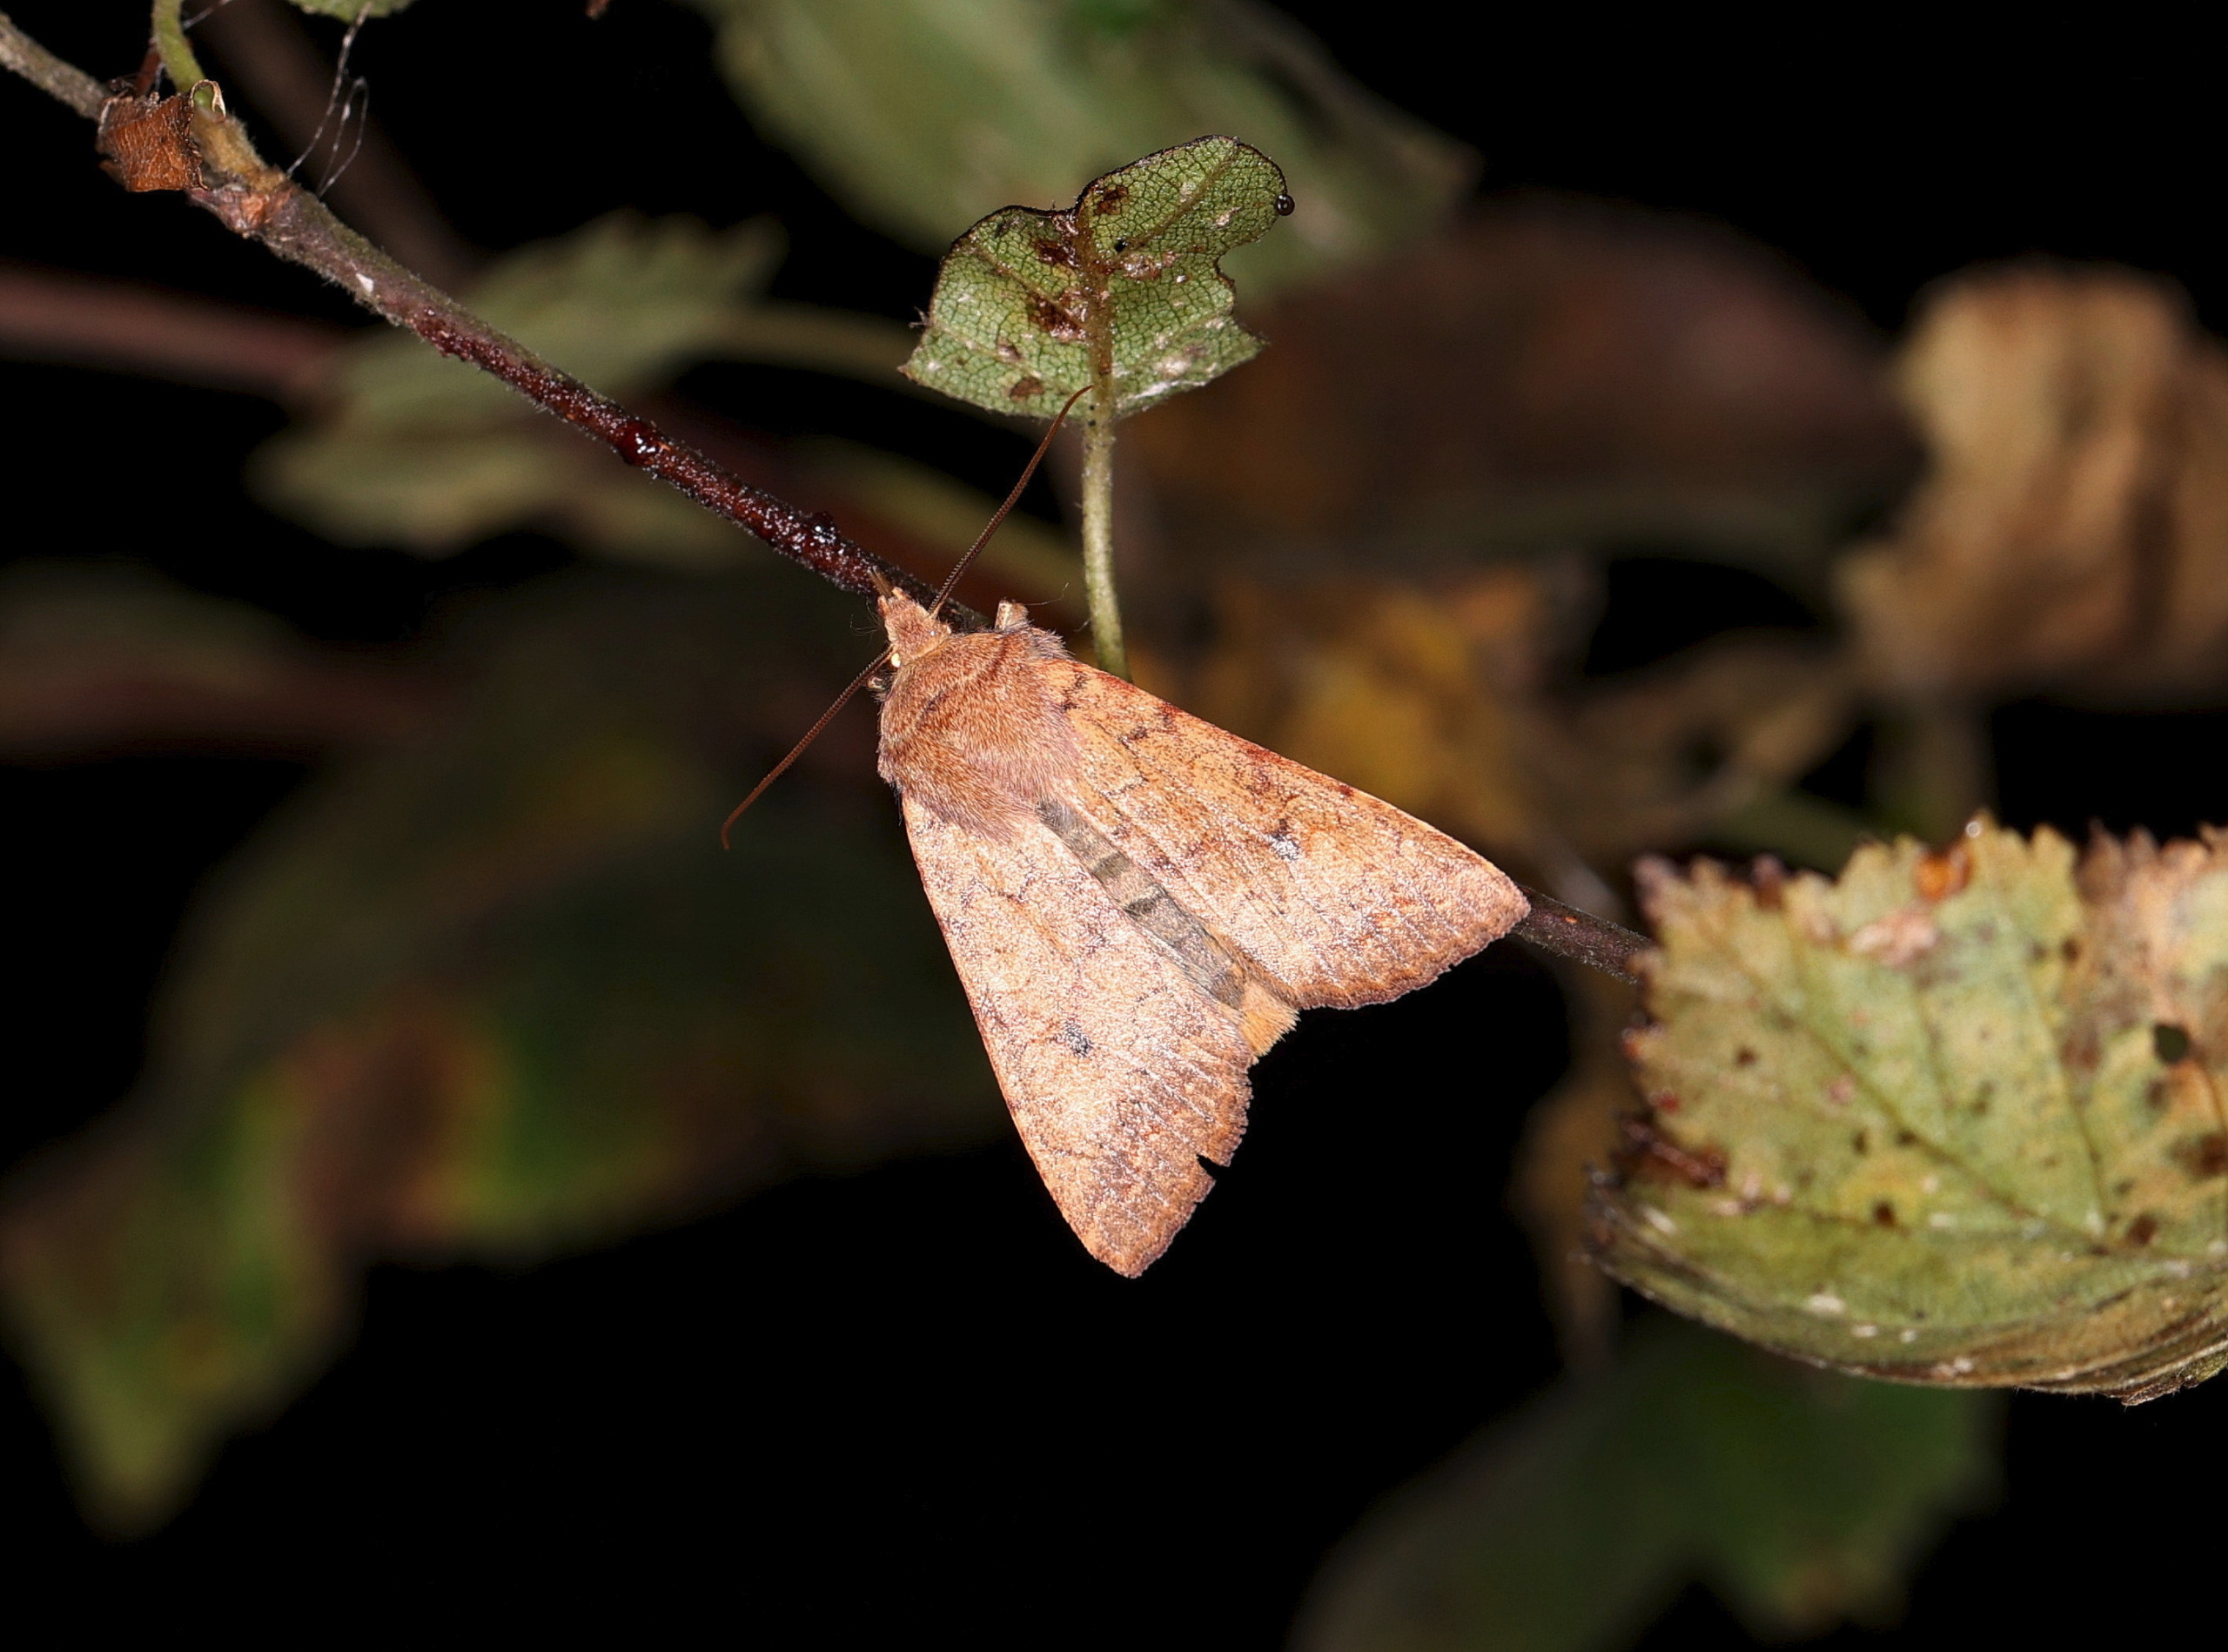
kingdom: Animalia
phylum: Arthropoda
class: Insecta
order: Lepidoptera
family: Noctuidae
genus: Sunira
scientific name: Sunira circellaris
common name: Cirkel-jordfarveugle
